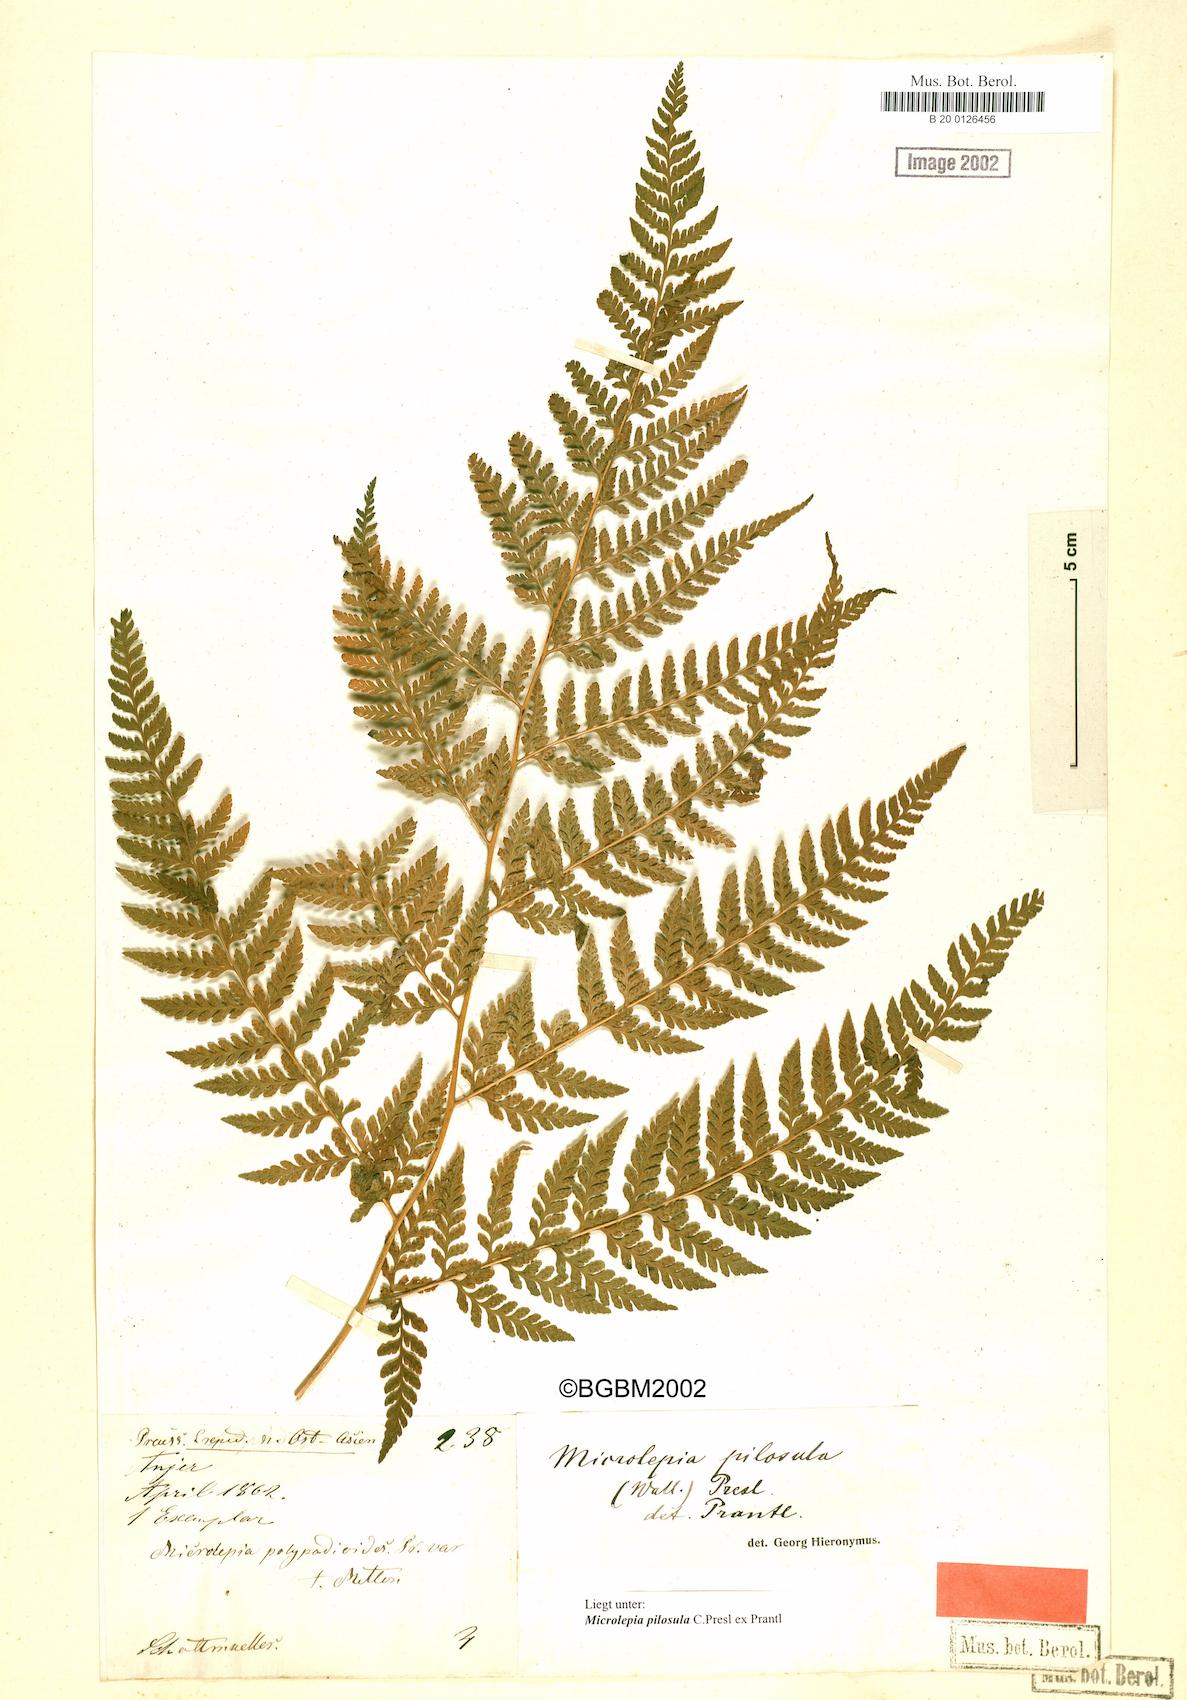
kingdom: Plantae
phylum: Tracheophyta
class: Polypodiopsida
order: Polypodiales
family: Dennstaedtiaceae
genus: Microlepia
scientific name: Microlepia speluncae
